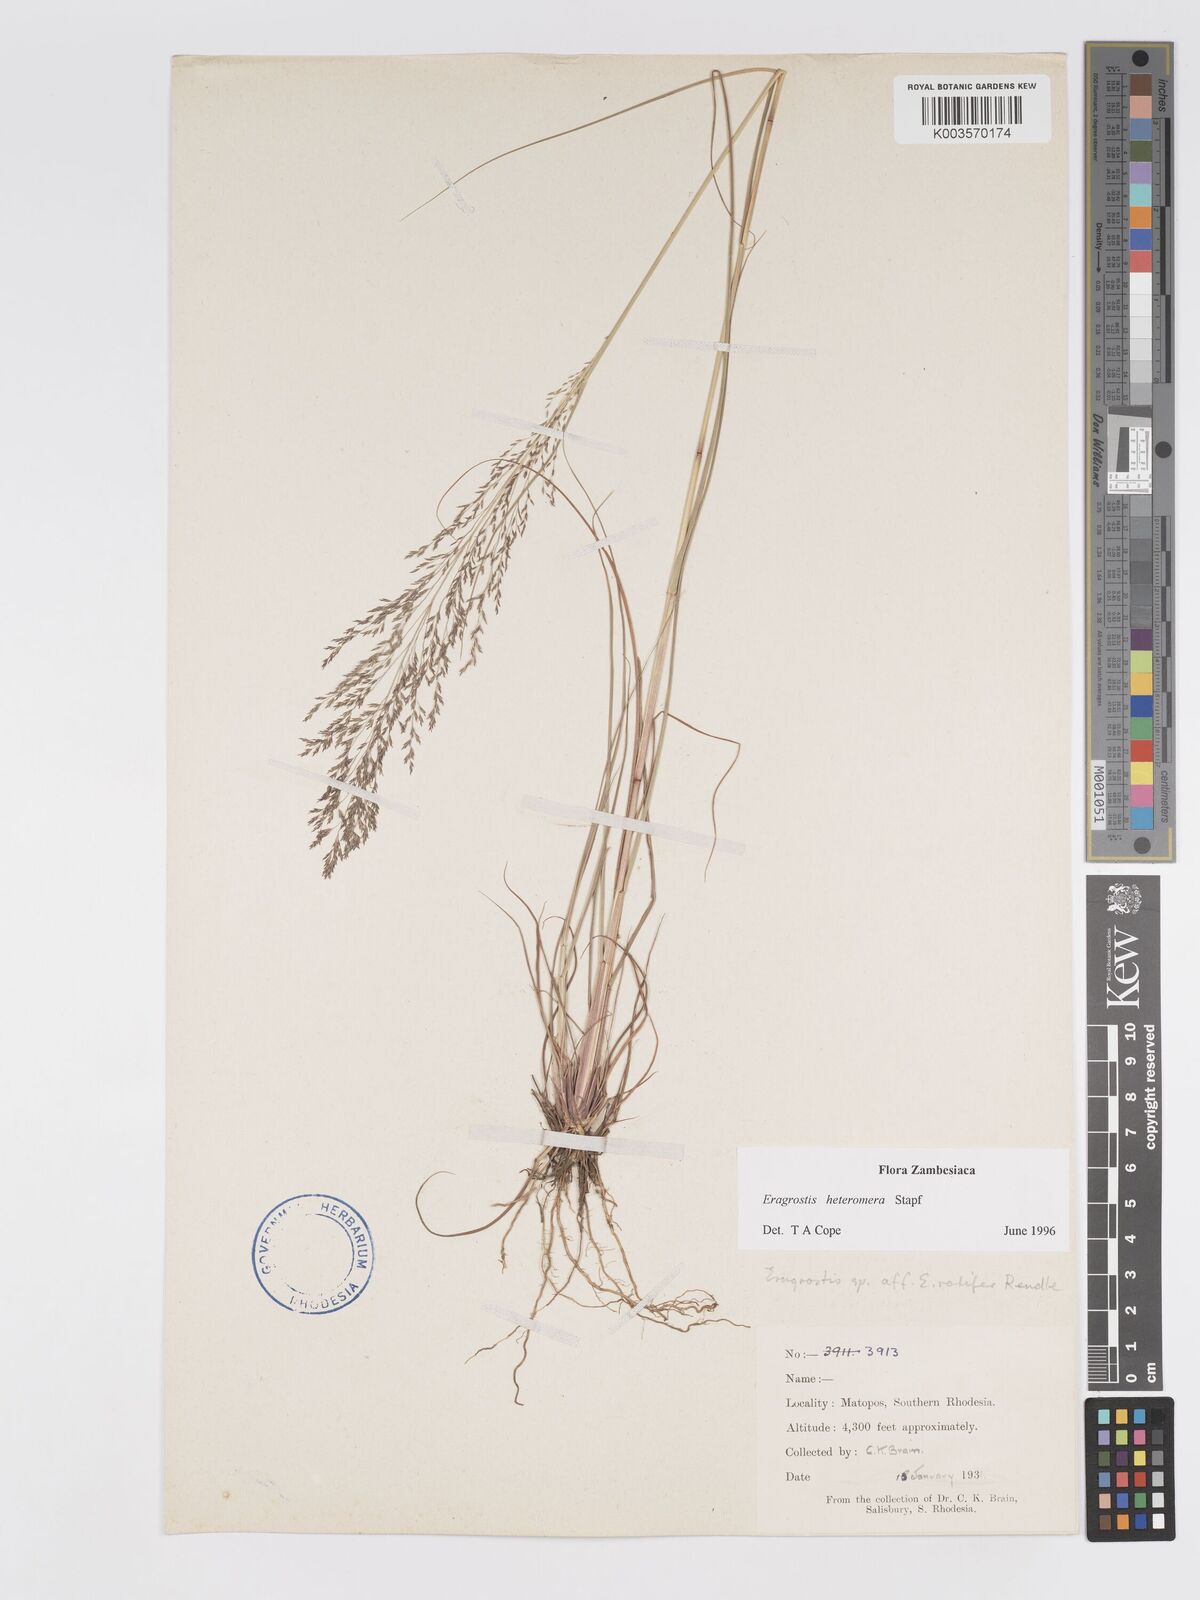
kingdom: Plantae
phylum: Tracheophyta
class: Liliopsida
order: Poales
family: Poaceae
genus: Eragrostis
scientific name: Eragrostis heteromera
